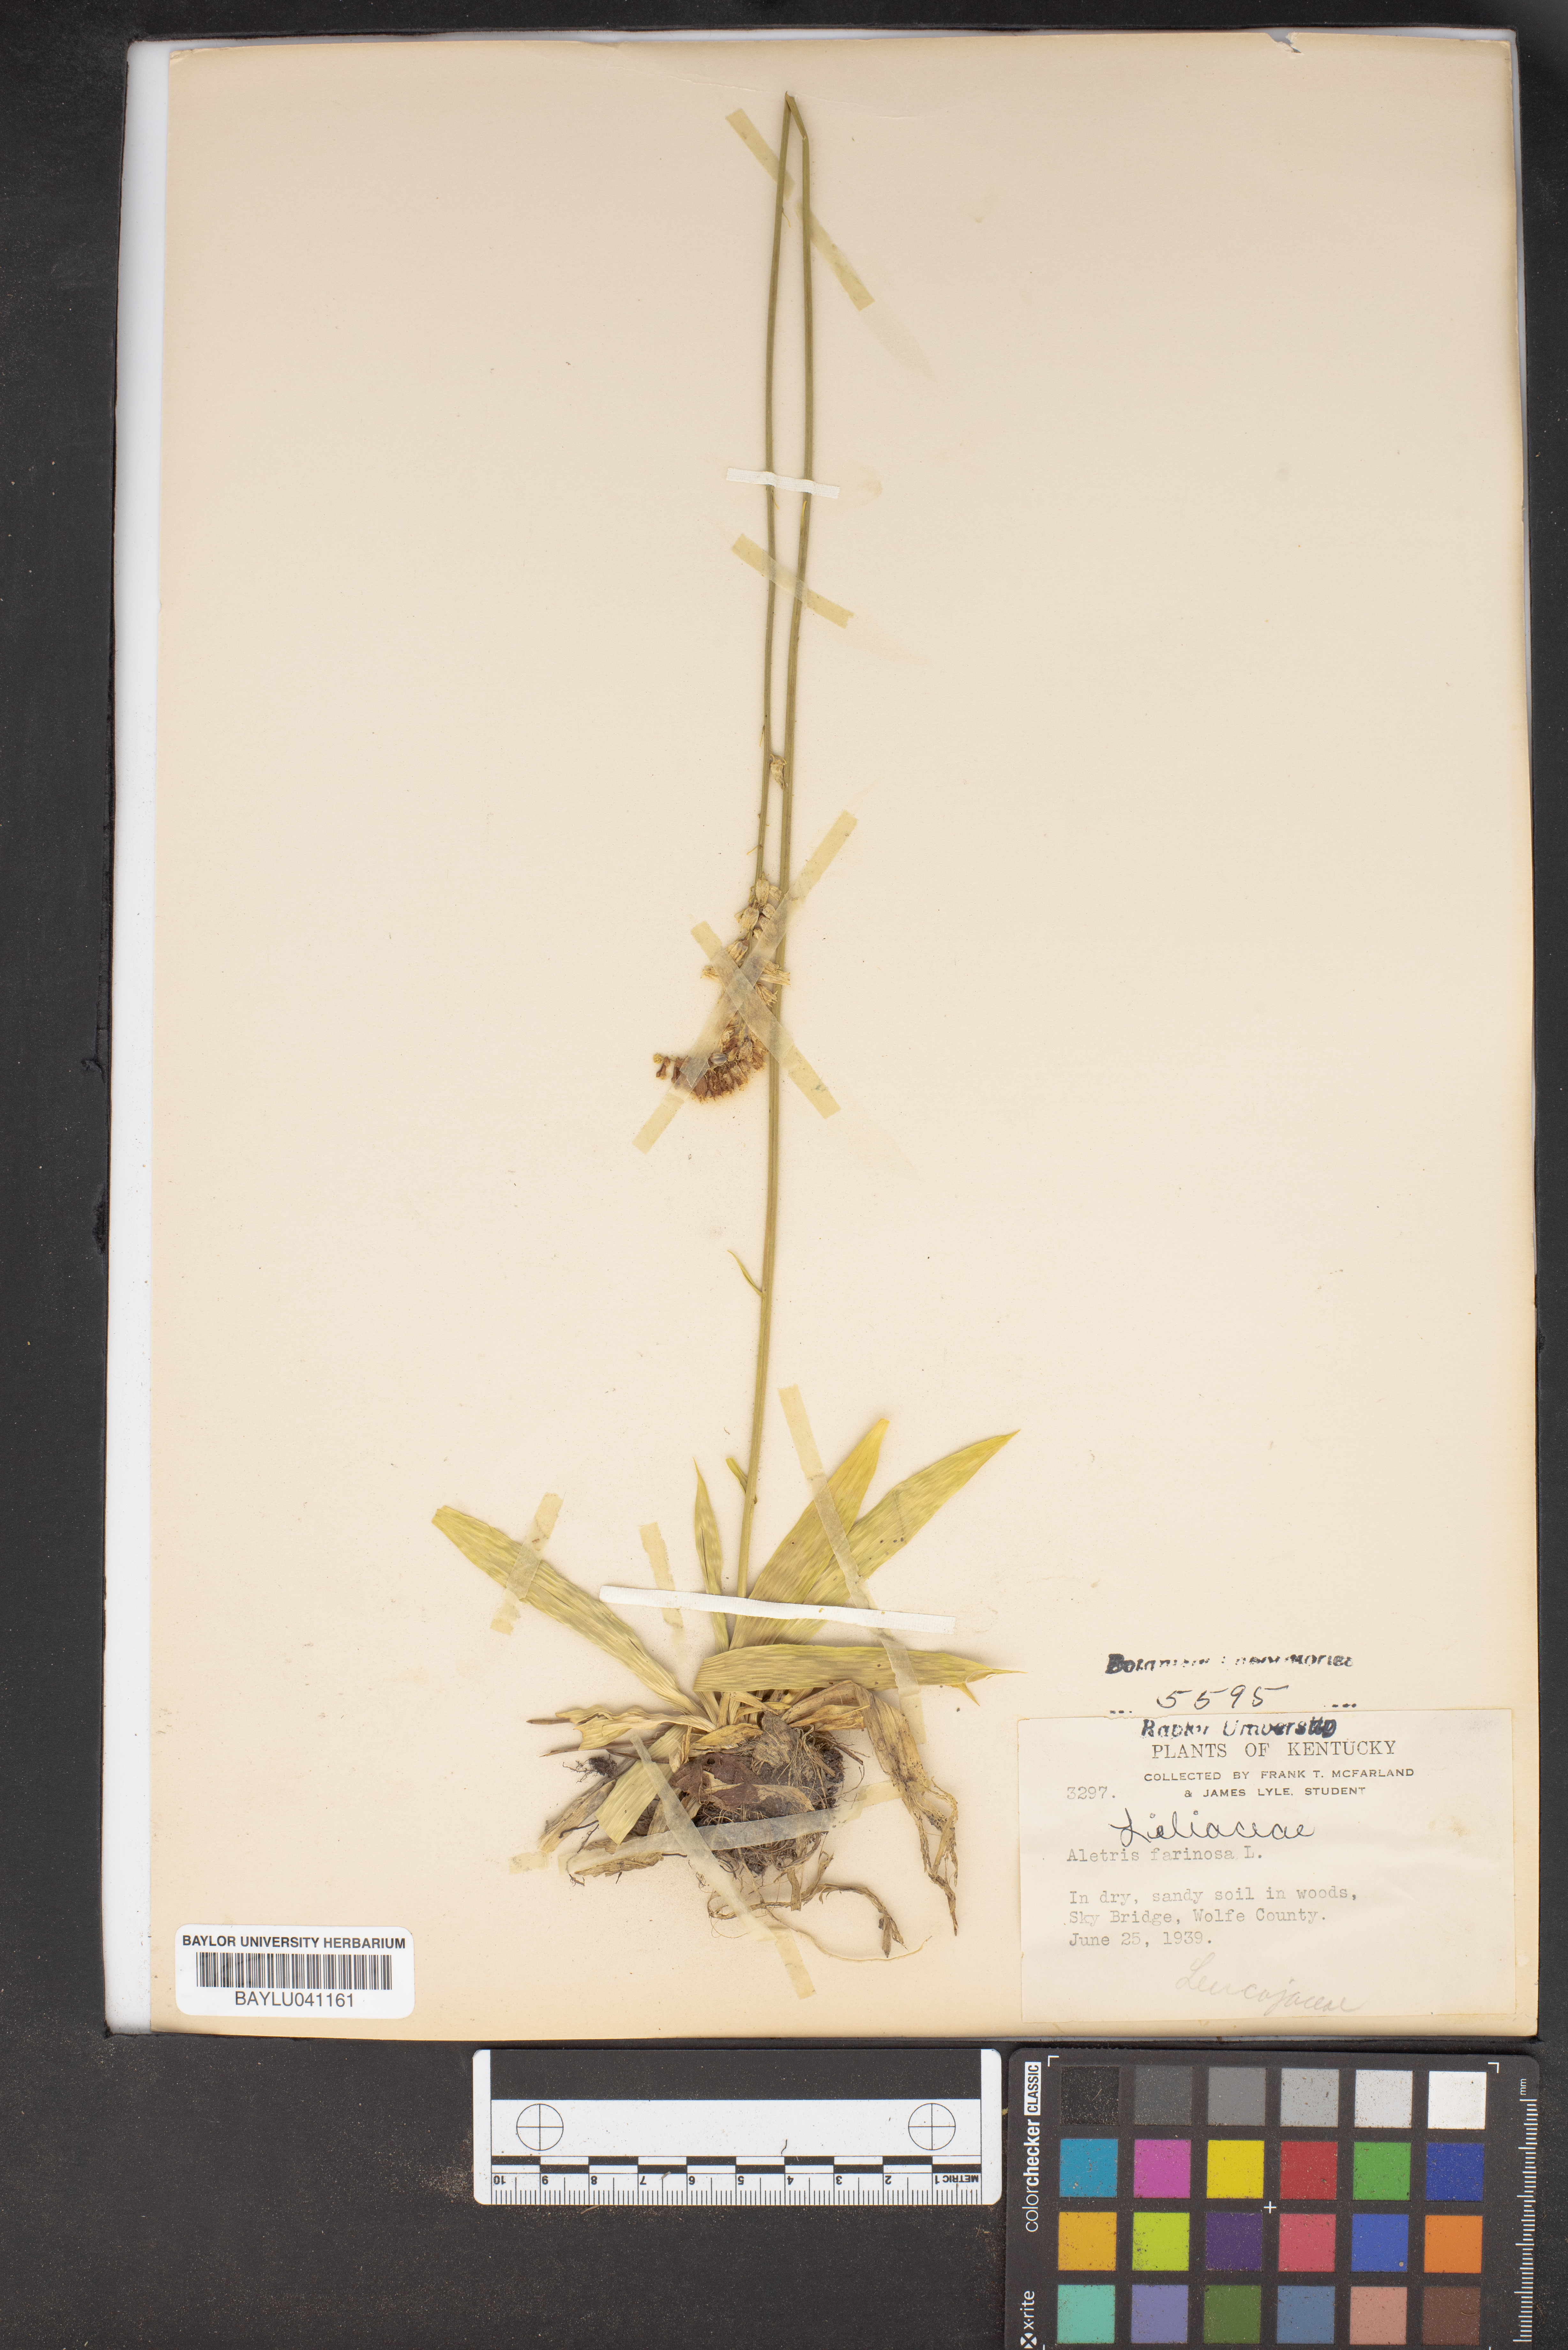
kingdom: Plantae
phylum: Tracheophyta
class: Liliopsida
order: Dioscoreales
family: Nartheciaceae
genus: Aletris
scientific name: Aletris farinosa
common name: Colicroot
